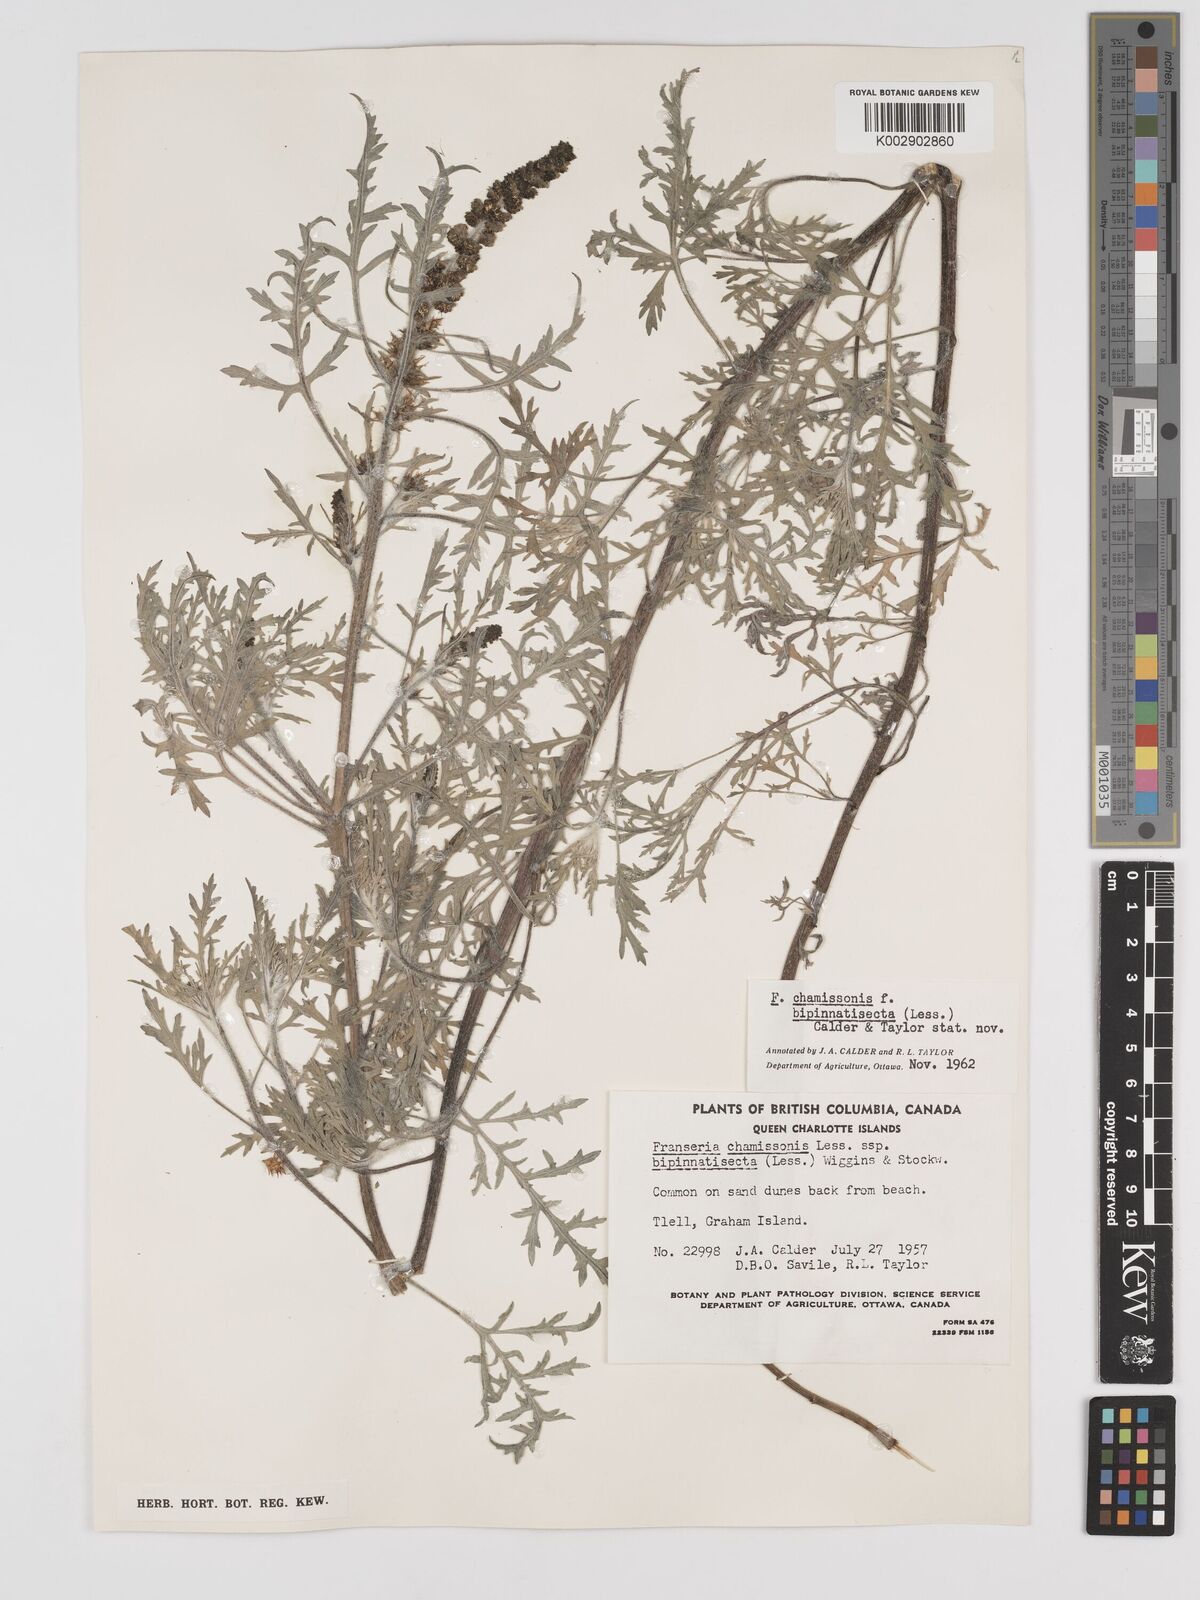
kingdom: Plantae
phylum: Tracheophyta
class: Magnoliopsida
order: Asterales
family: Asteraceae
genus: Ambrosia
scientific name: Ambrosia chamissonis
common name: Beachbur
